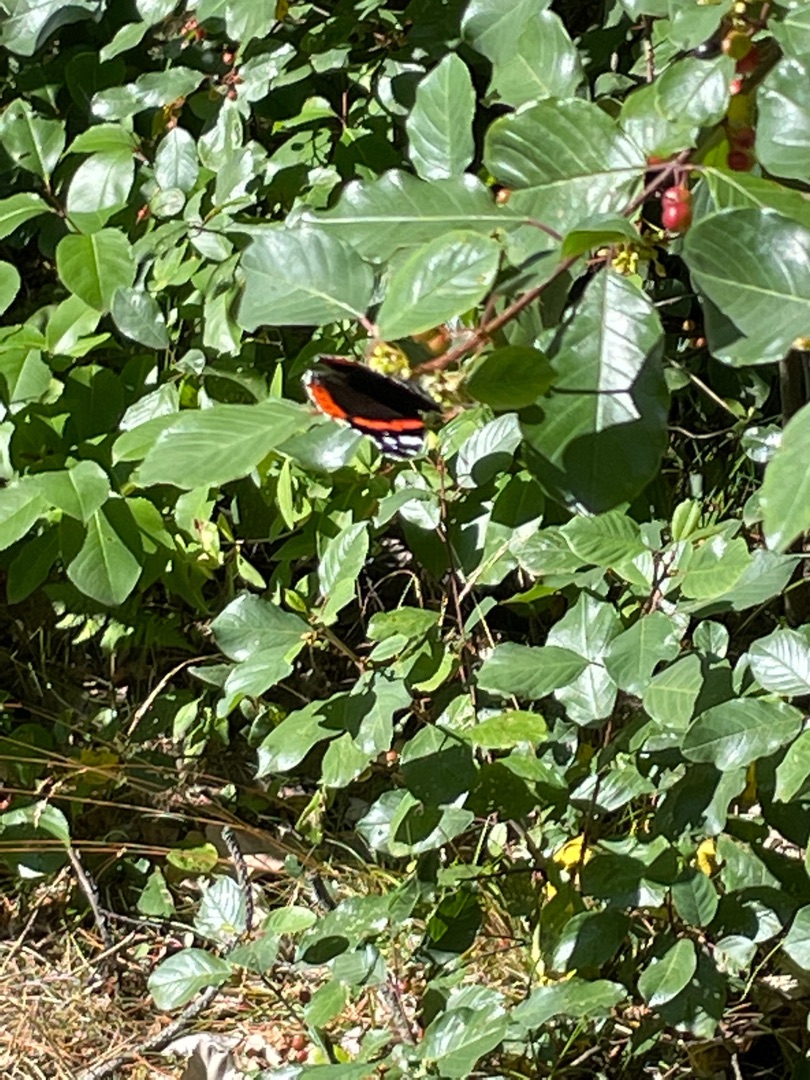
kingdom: Animalia
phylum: Arthropoda
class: Insecta
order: Lepidoptera
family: Nymphalidae
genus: Vanessa
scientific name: Vanessa atalanta
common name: Admiral
